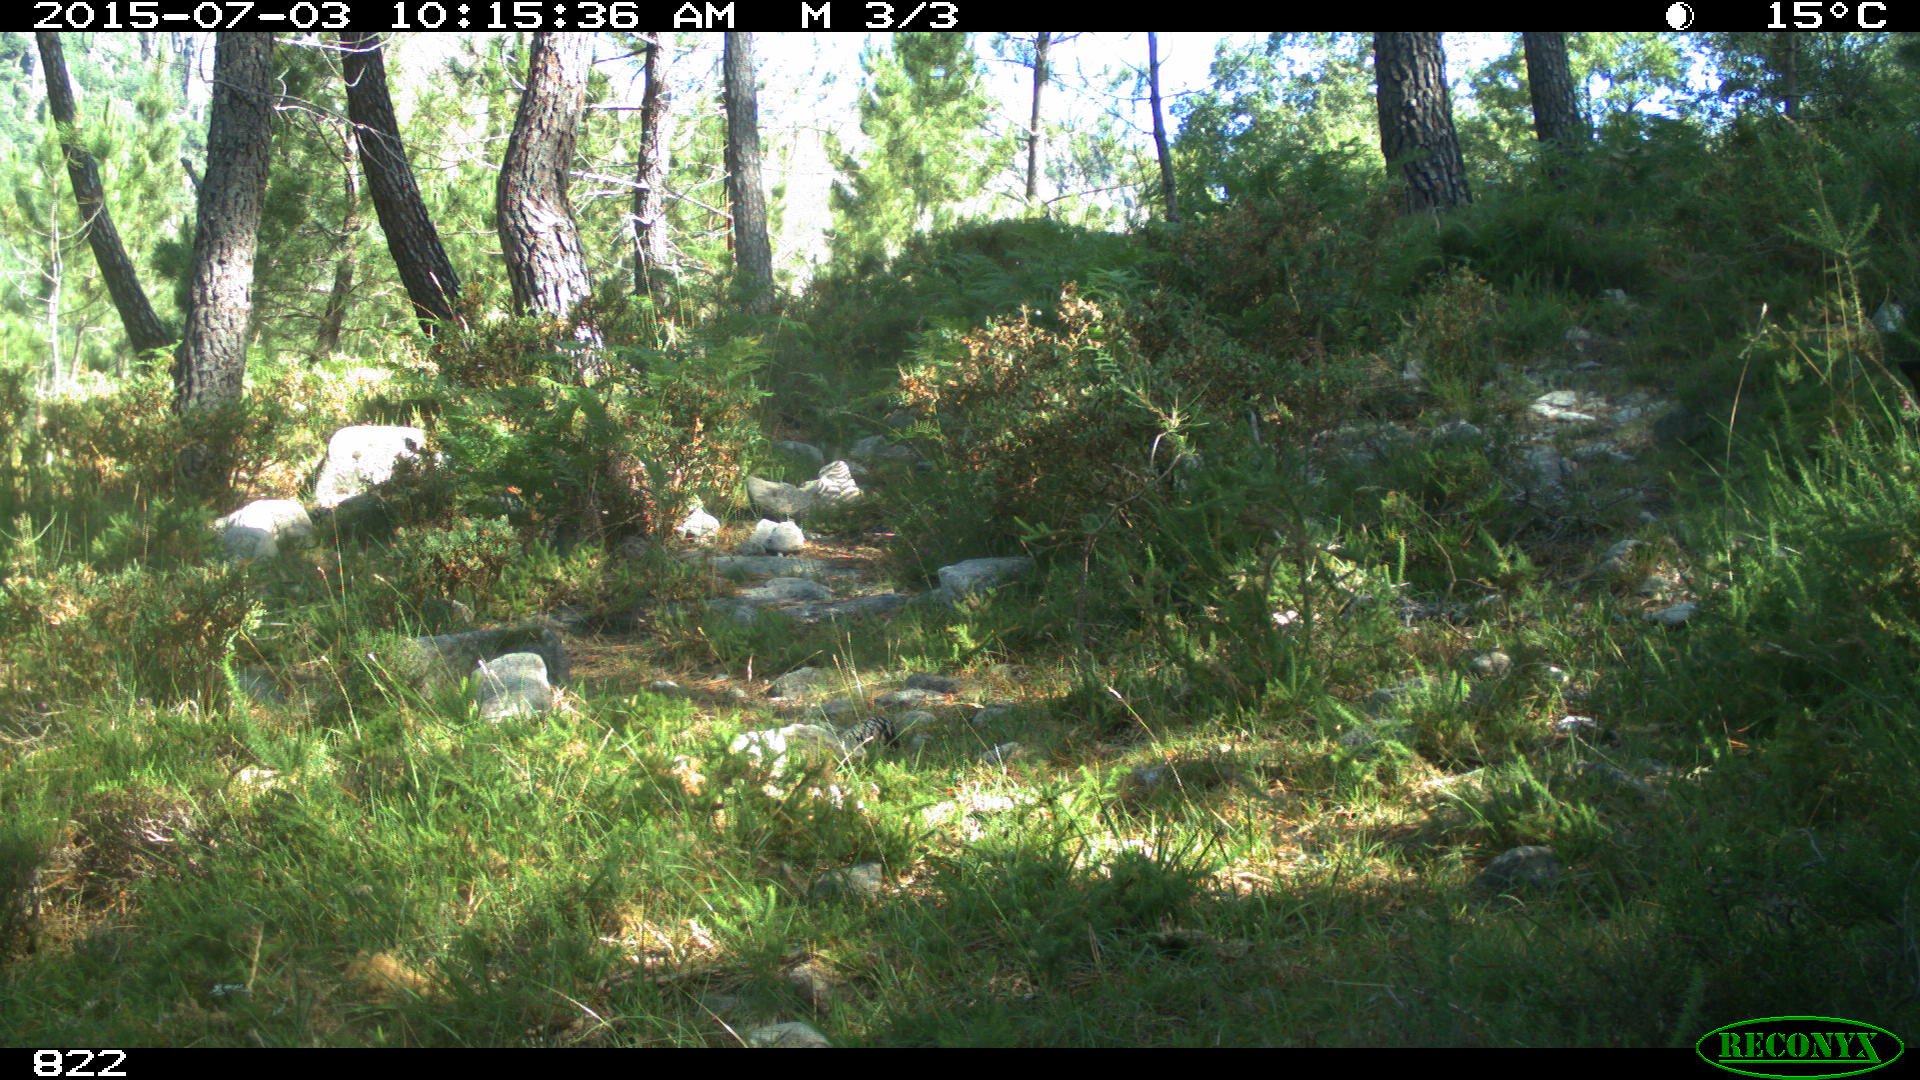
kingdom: Animalia
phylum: Chordata
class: Mammalia
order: Perissodactyla
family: Equidae
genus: Equus
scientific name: Equus caballus
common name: Horse
